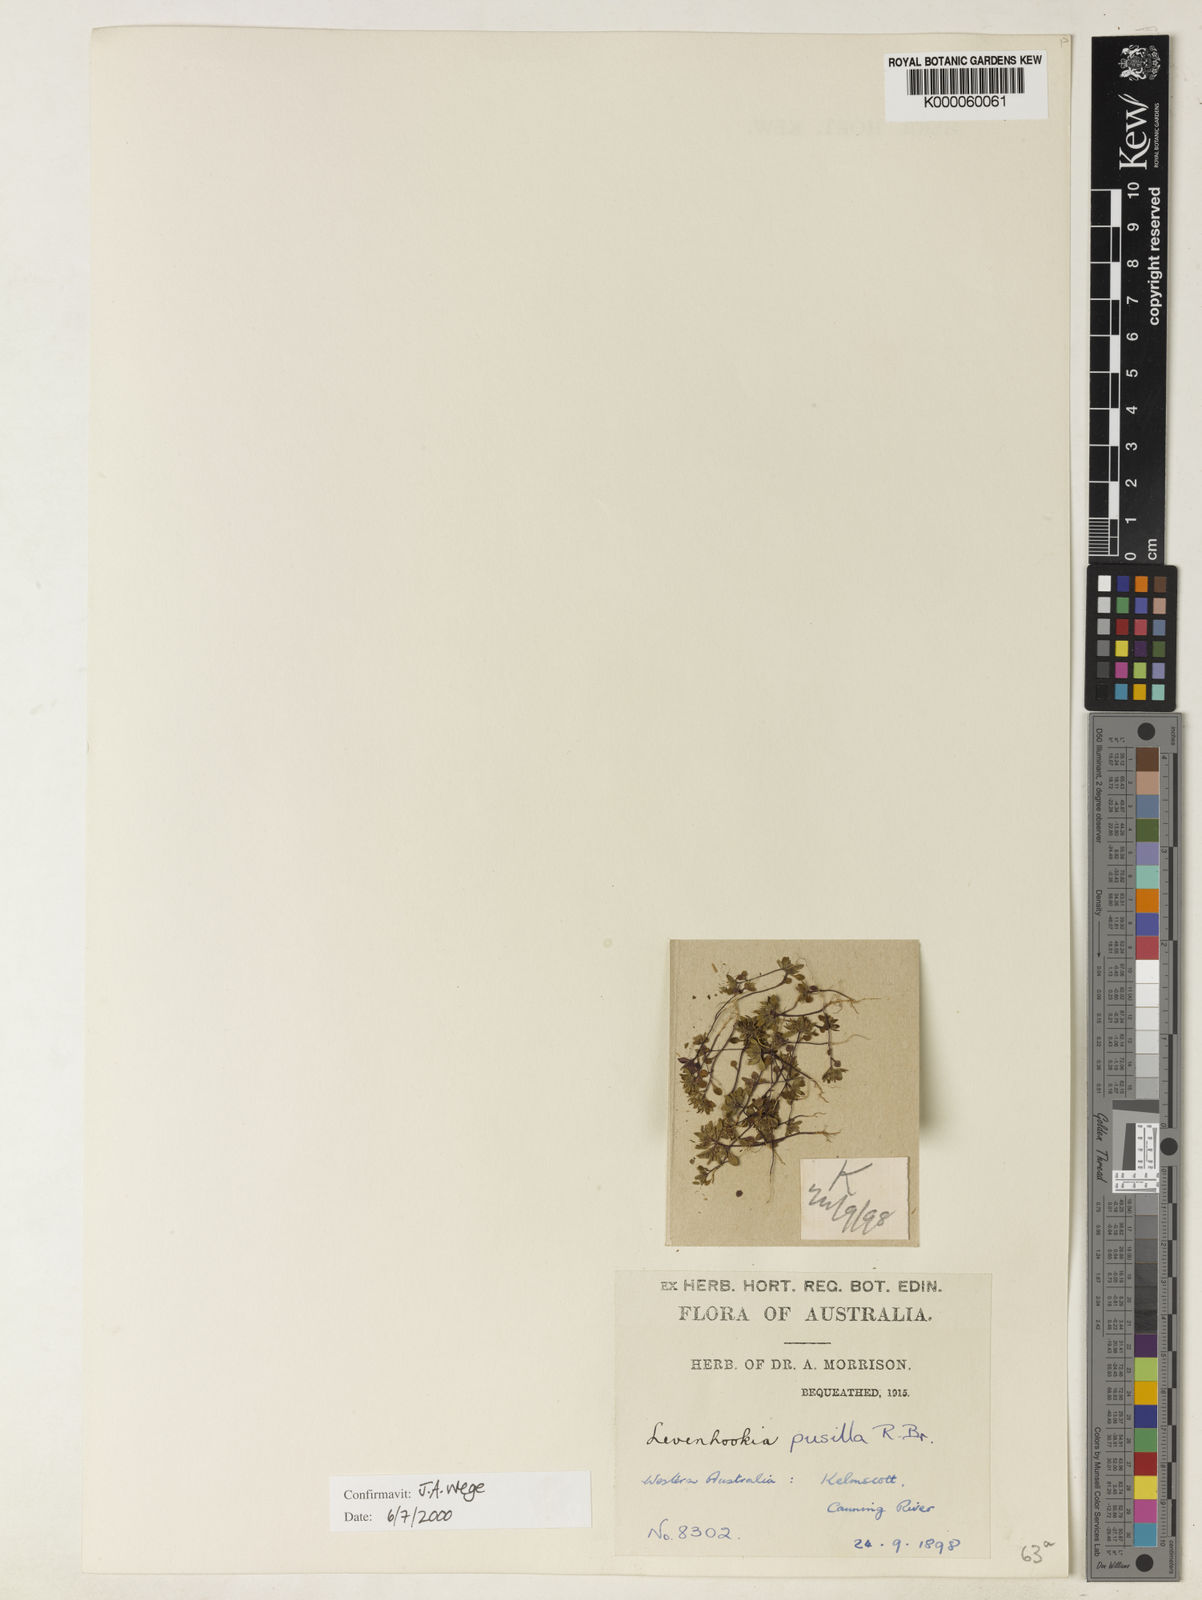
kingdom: Plantae
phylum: Tracheophyta
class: Magnoliopsida
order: Asterales
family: Stylidiaceae
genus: Levenhookia
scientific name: Levenhookia pusilla
